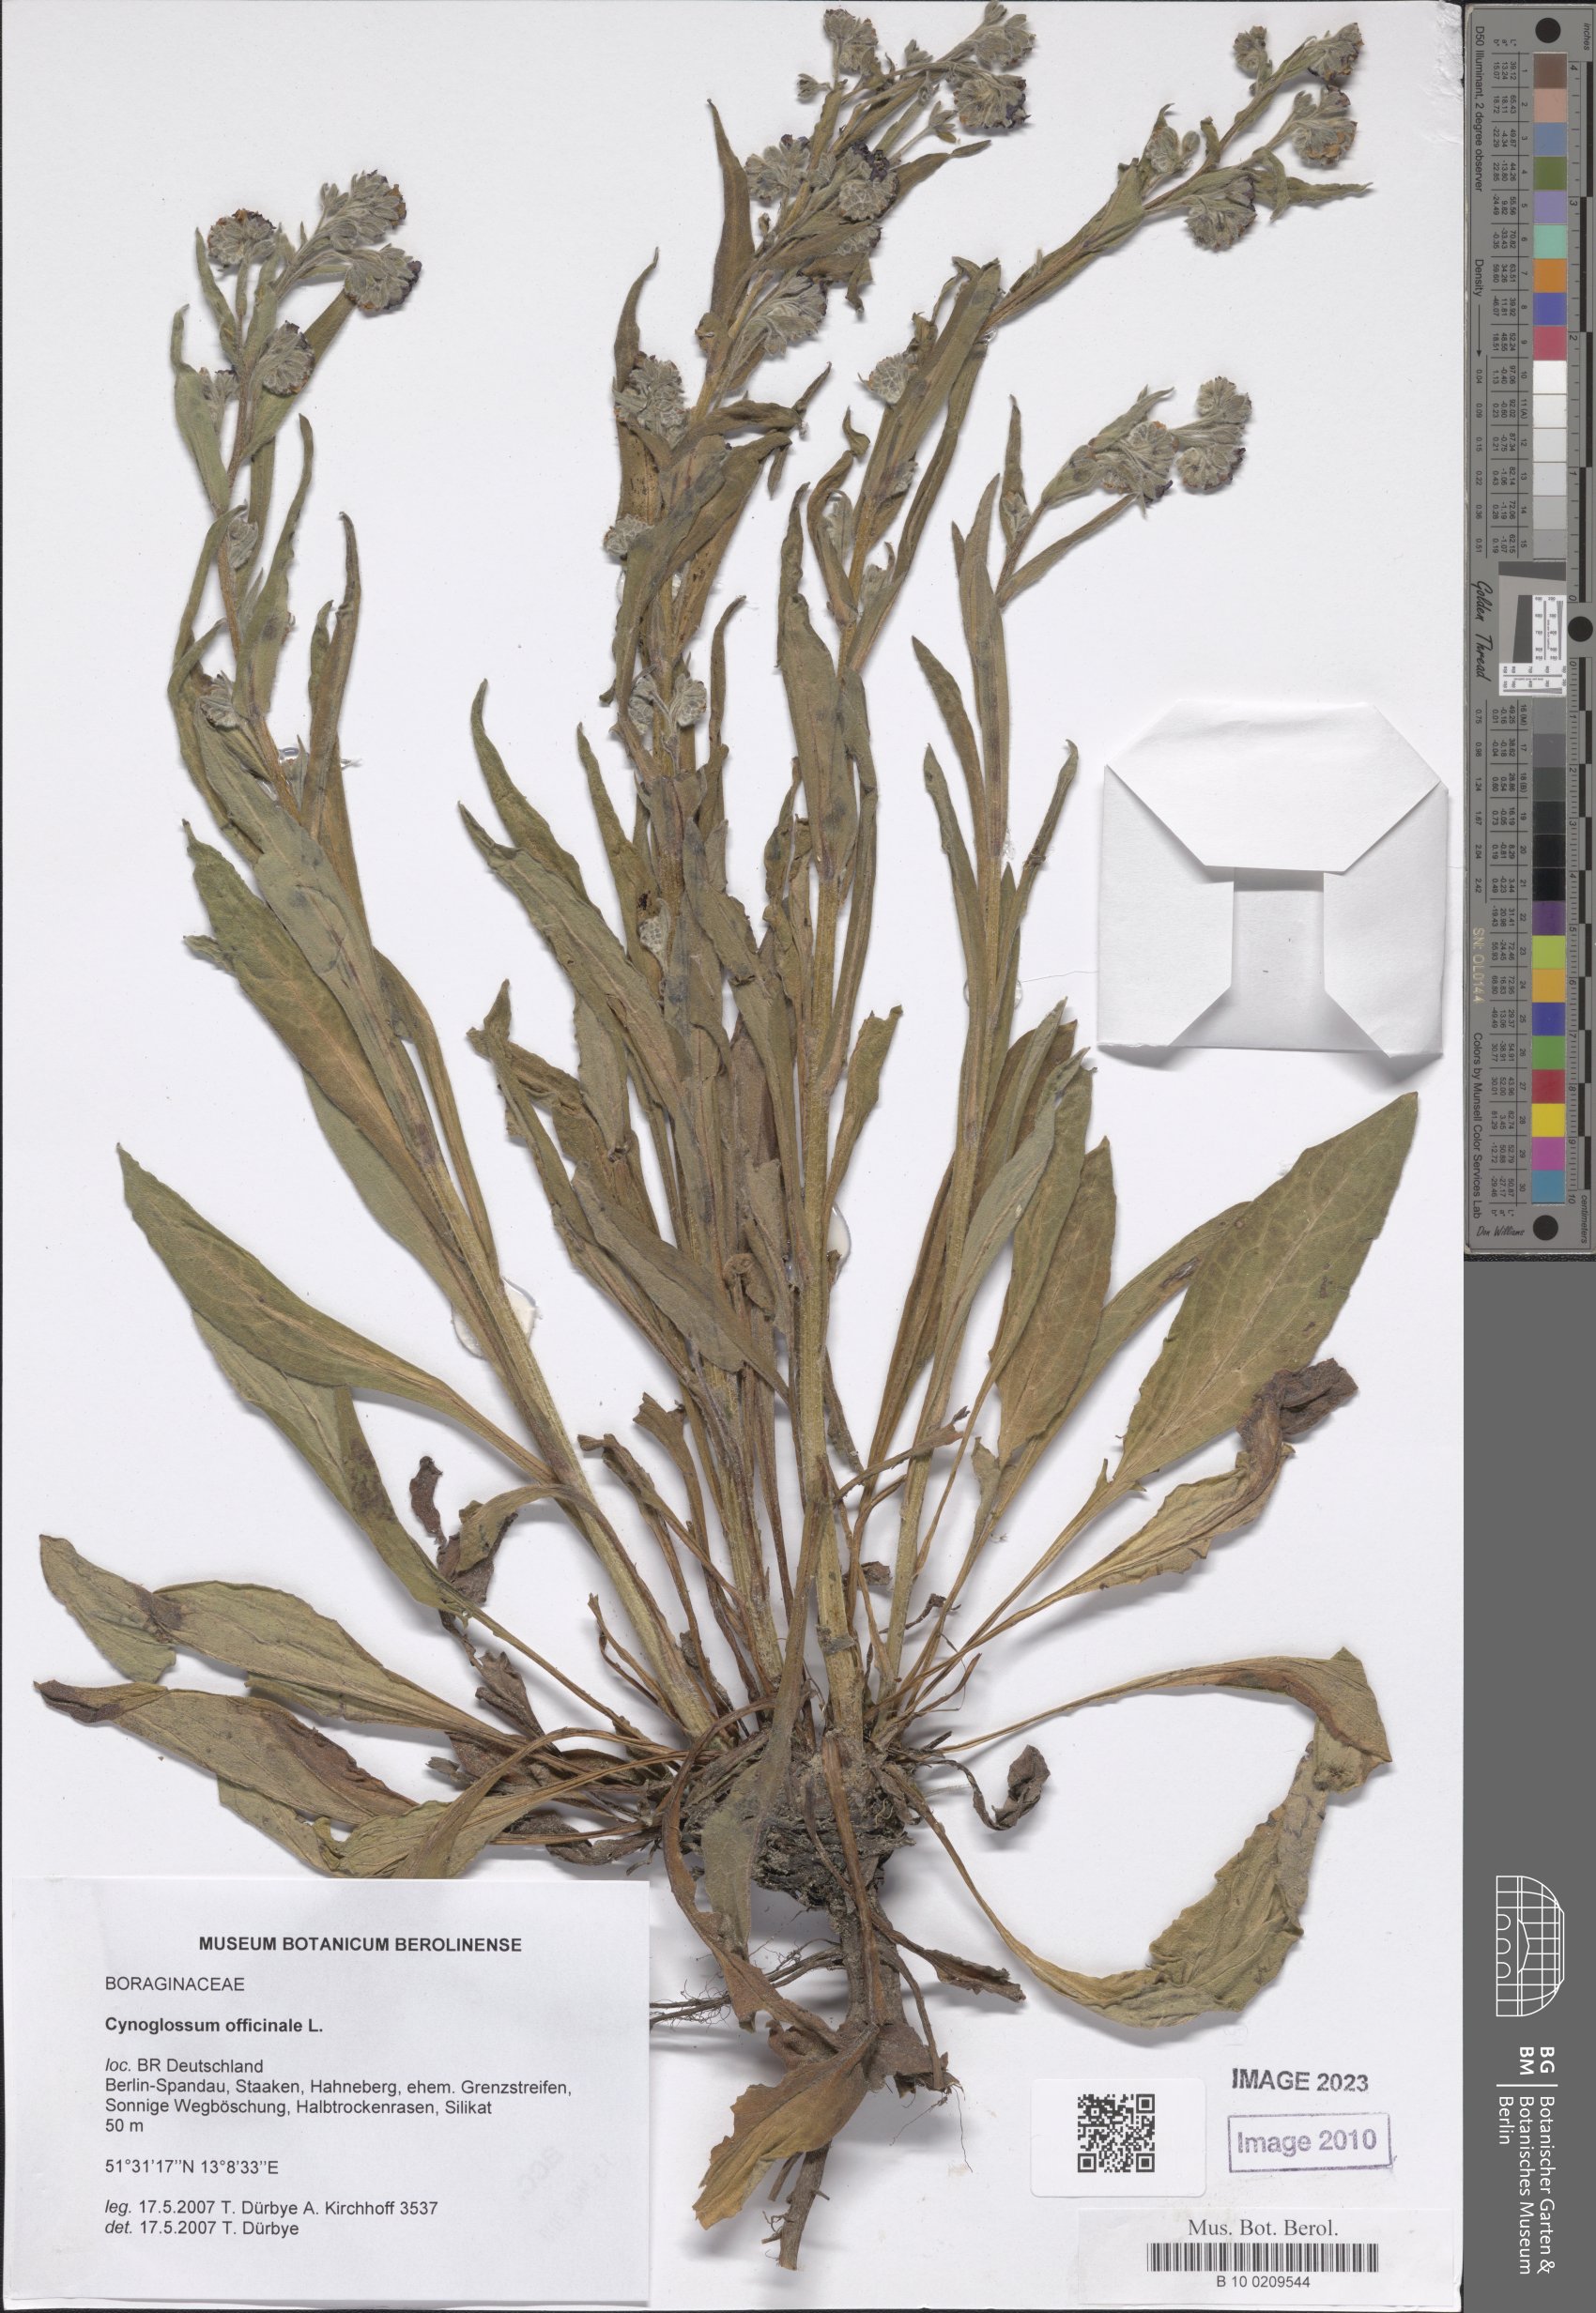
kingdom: Plantae
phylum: Tracheophyta
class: Magnoliopsida
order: Boraginales
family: Boraginaceae
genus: Cynoglossum
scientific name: Cynoglossum officinale
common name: Hound's-tongue
